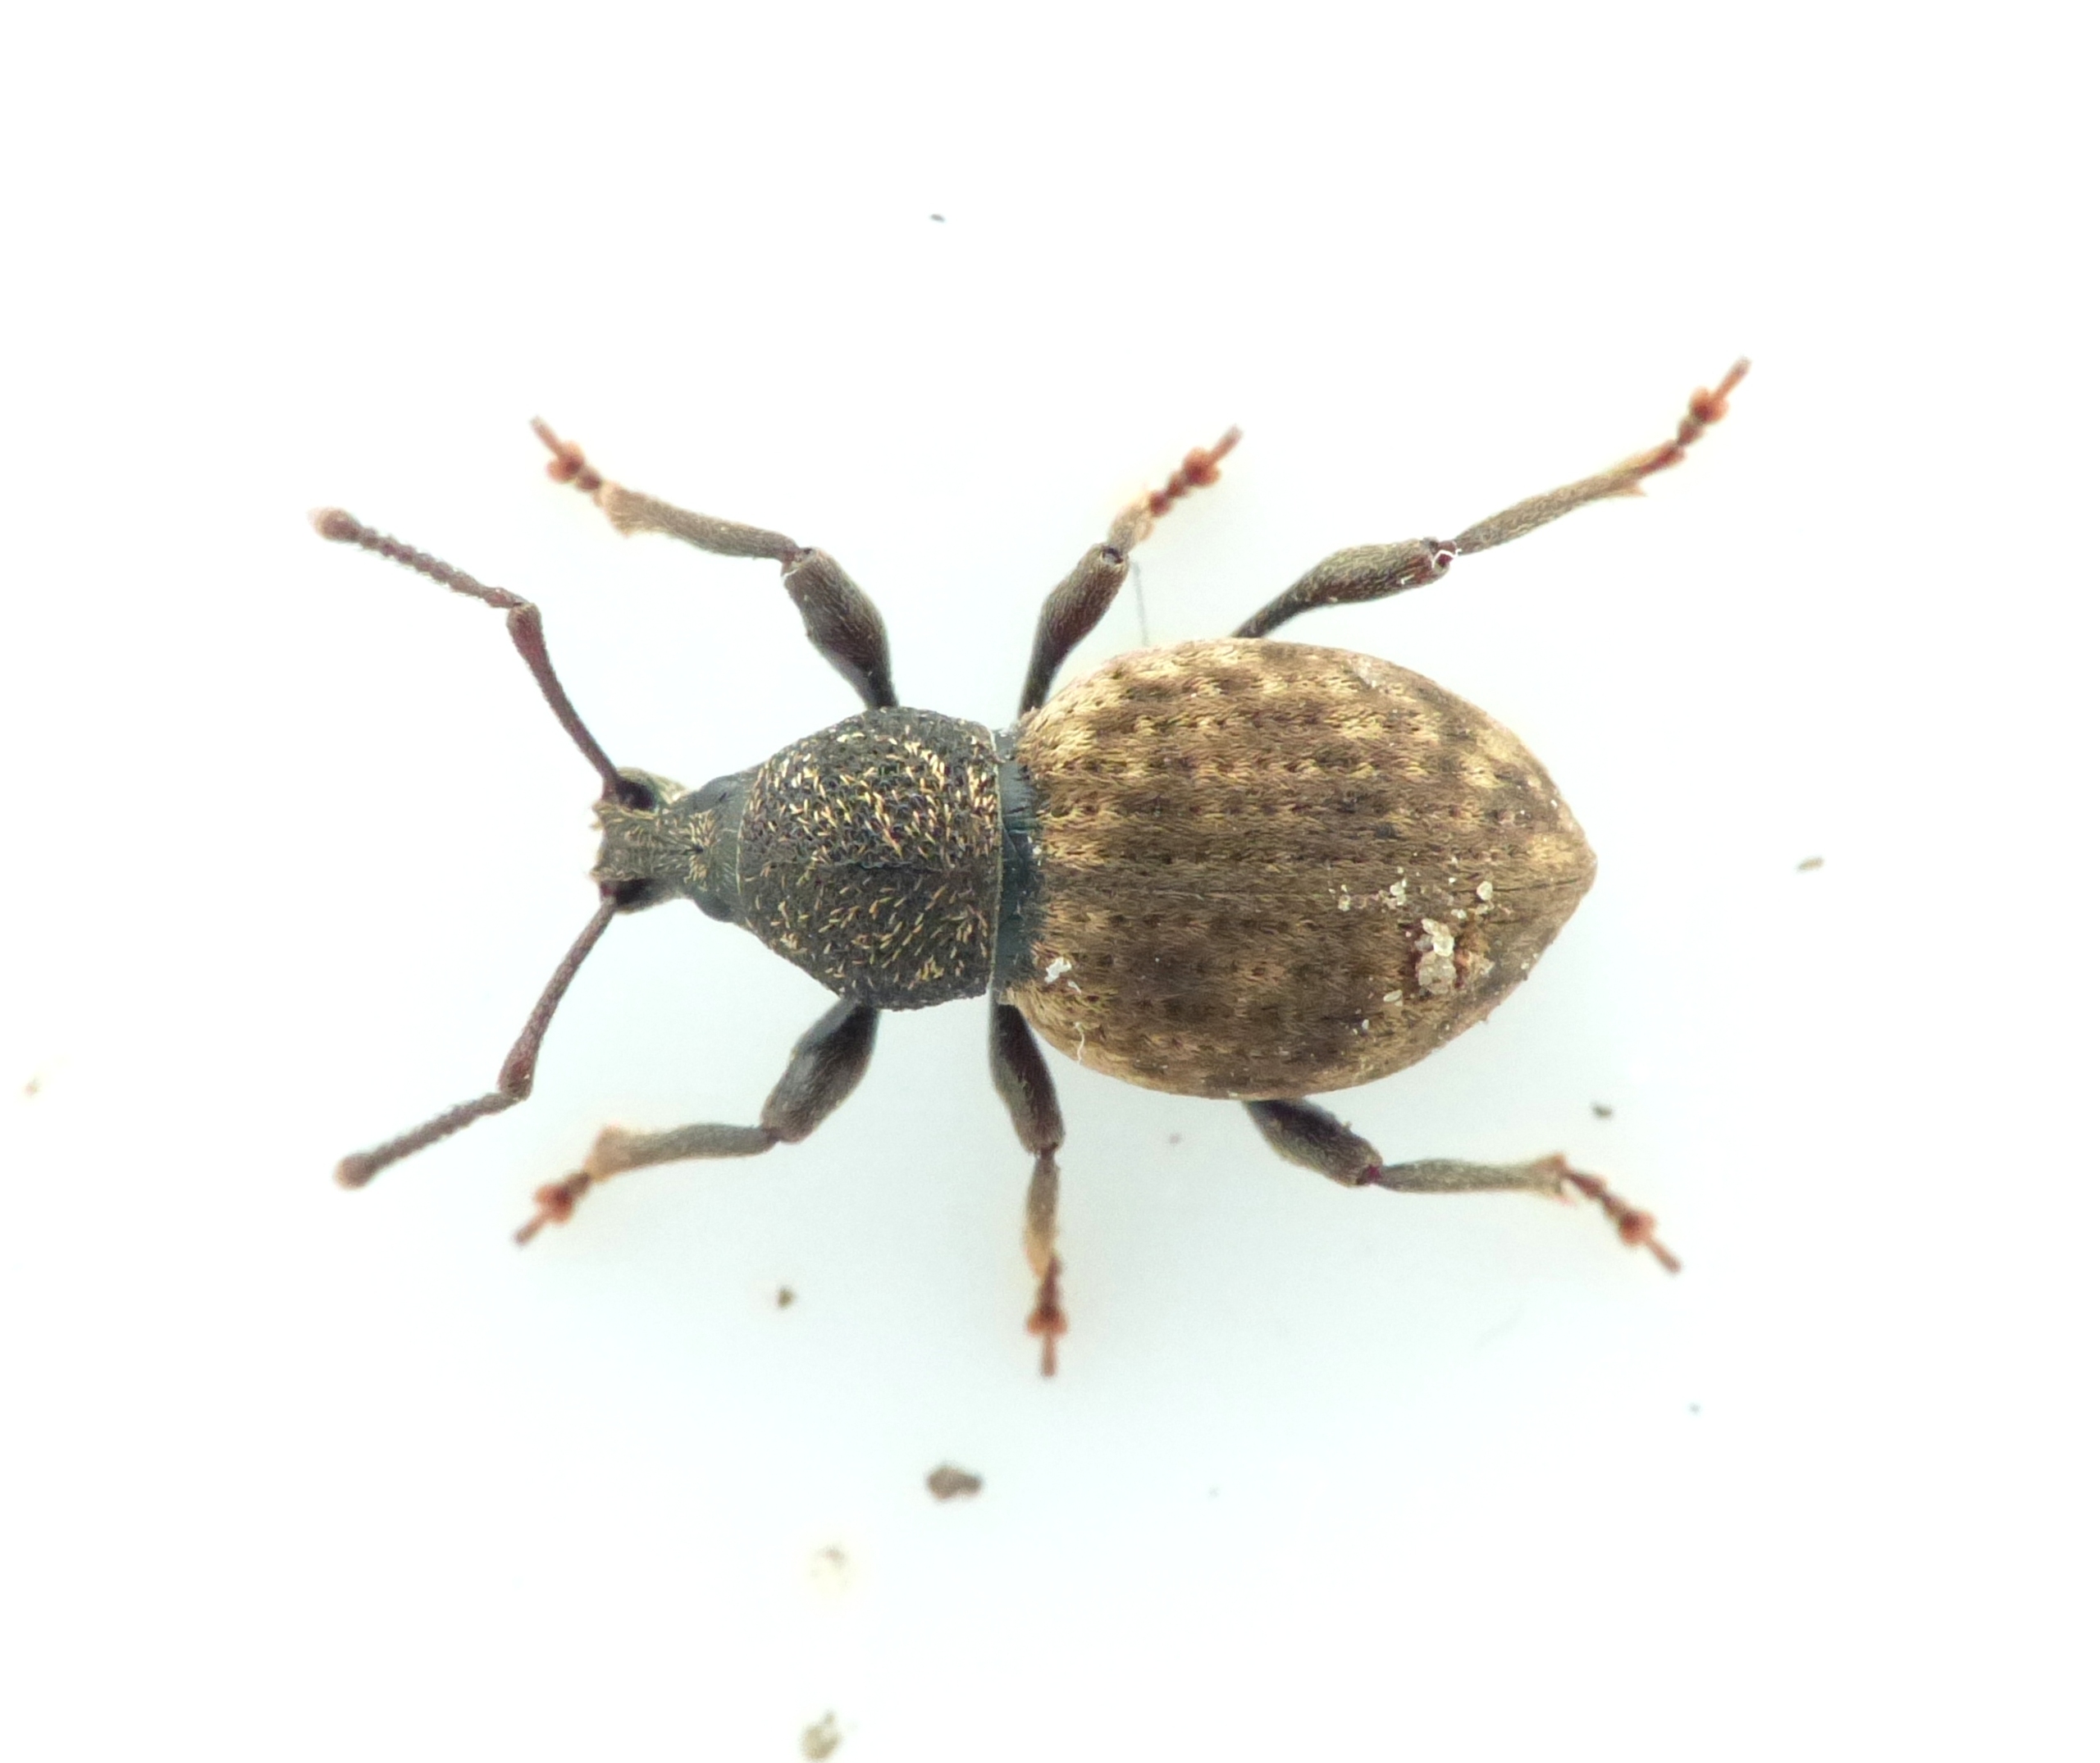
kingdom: Animalia
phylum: Arthropoda
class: Insecta
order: Coleoptera
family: Curculionidae
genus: Otiorhynchus
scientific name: Otiorhynchus raucus
